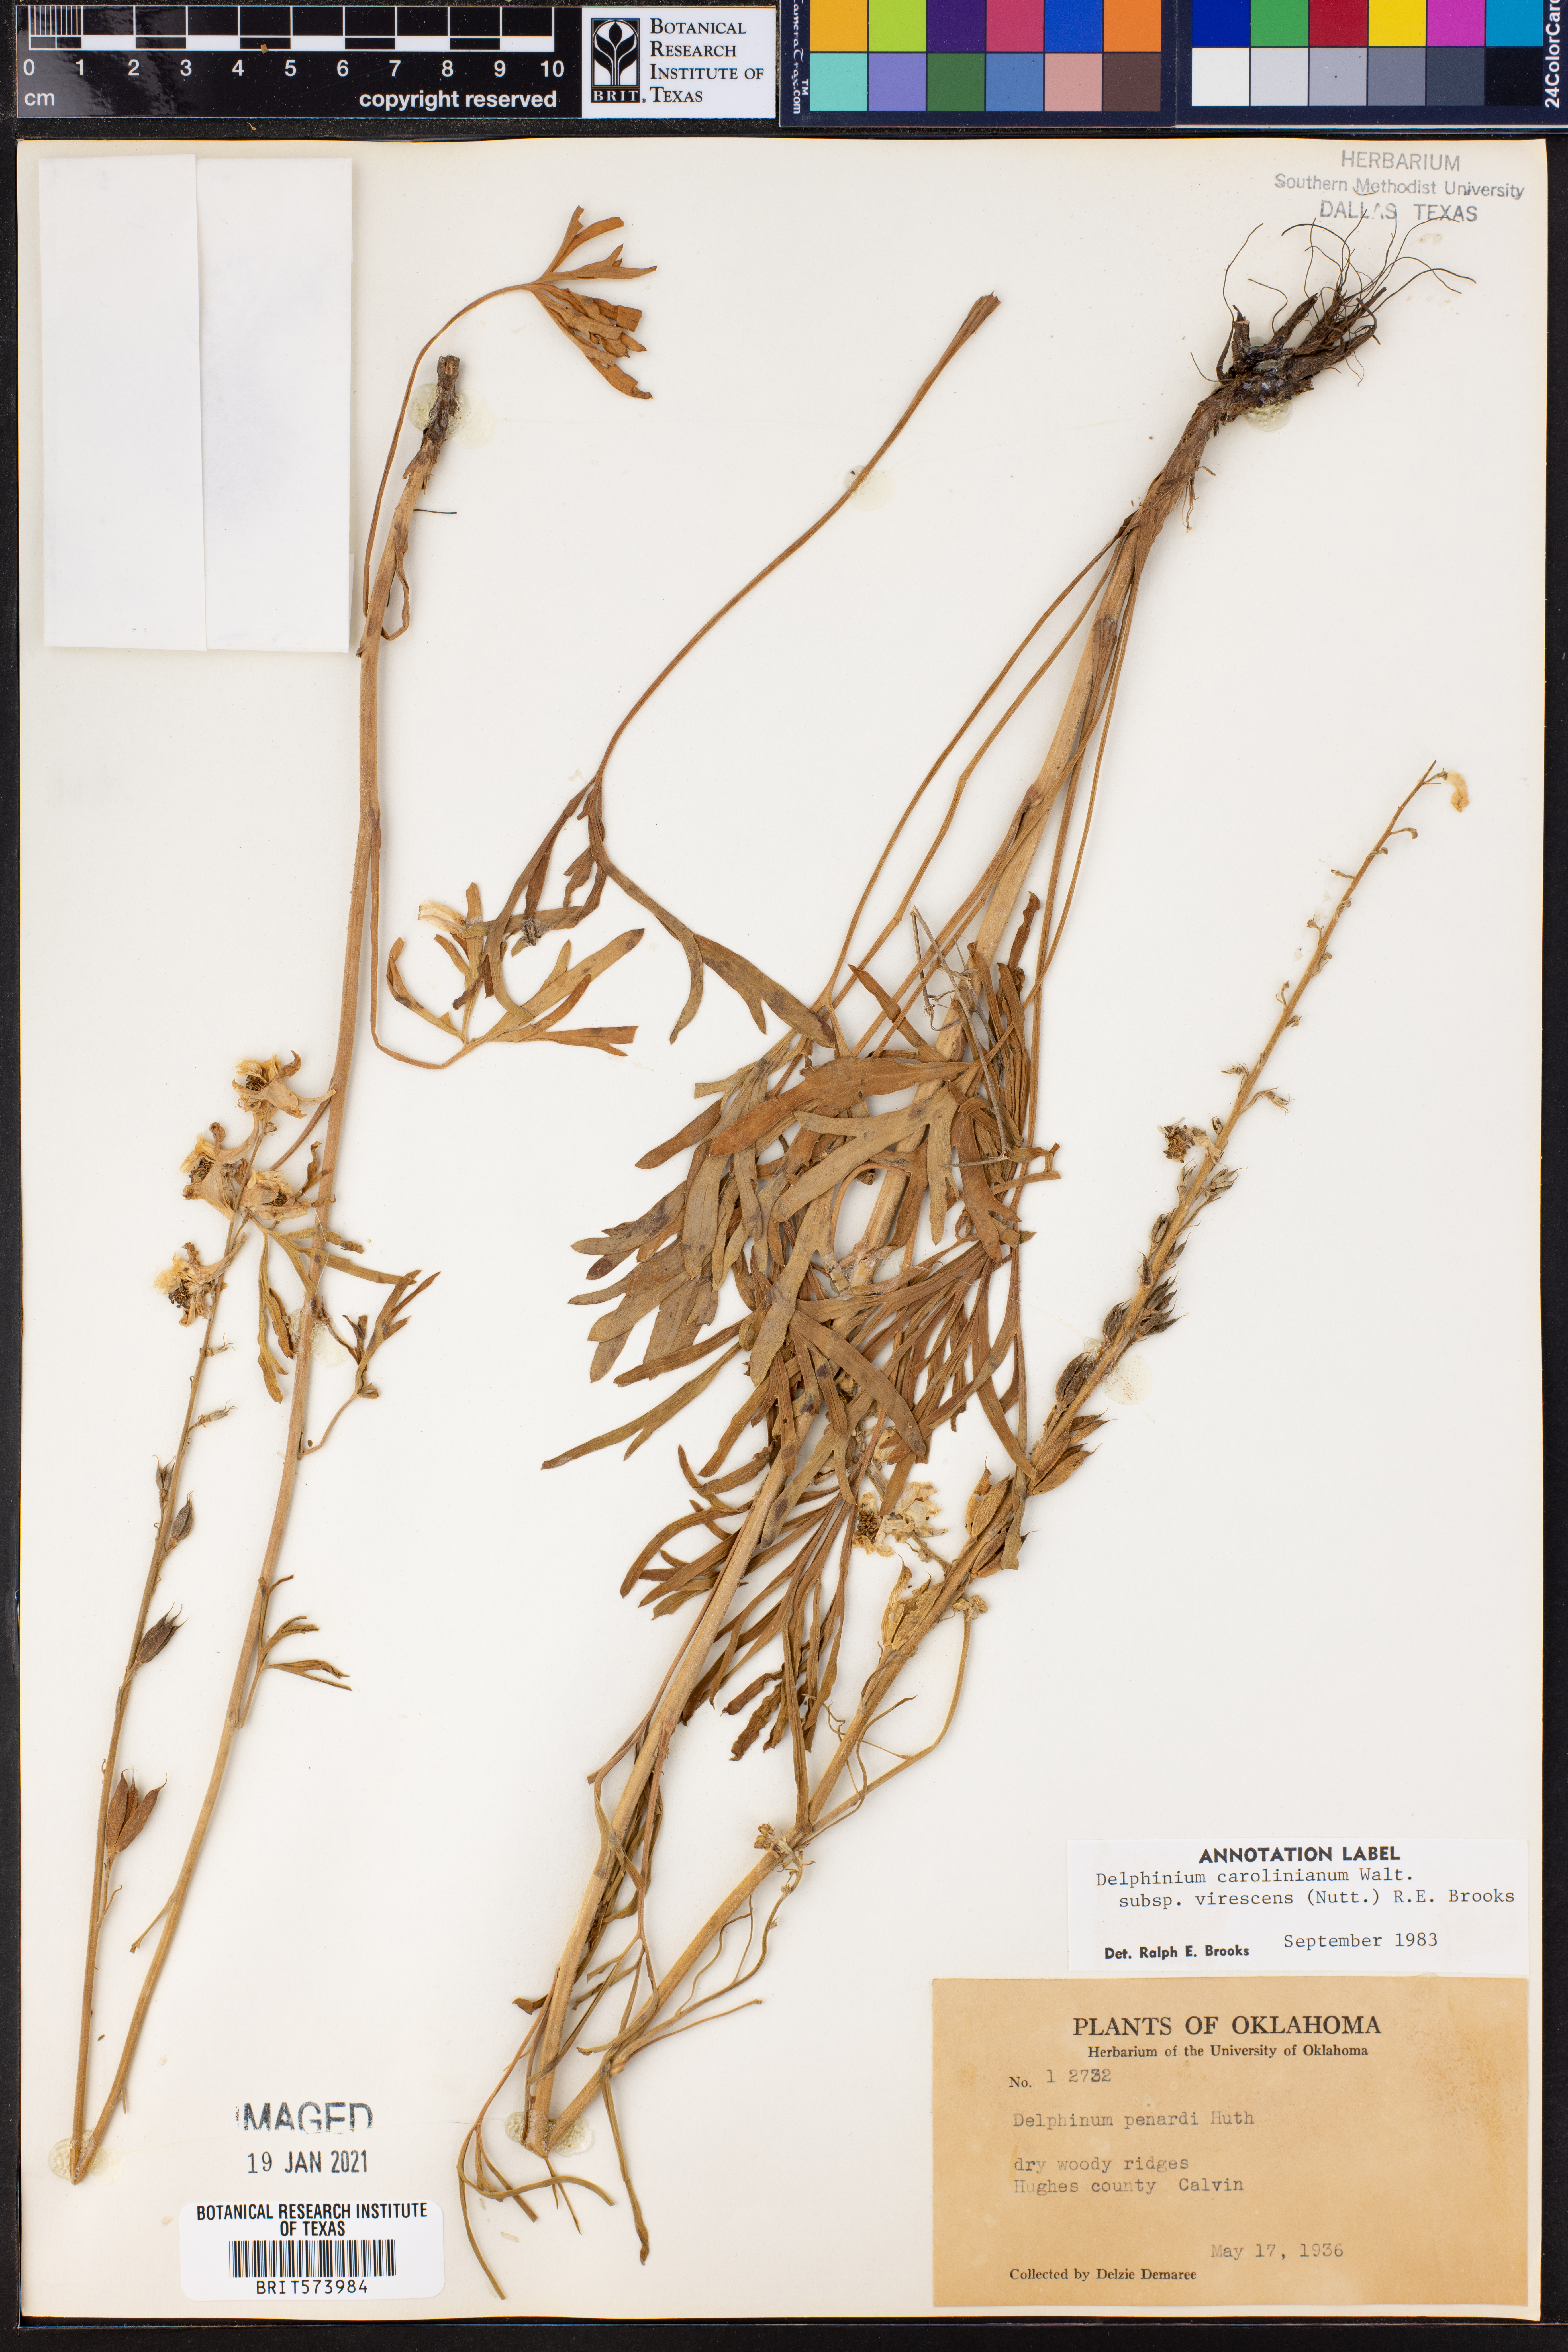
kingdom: Plantae
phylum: Tracheophyta
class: Magnoliopsida
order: Ranunculales
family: Ranunculaceae
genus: Delphinium
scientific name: Delphinium carolinianum
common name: Carolina larkspur
